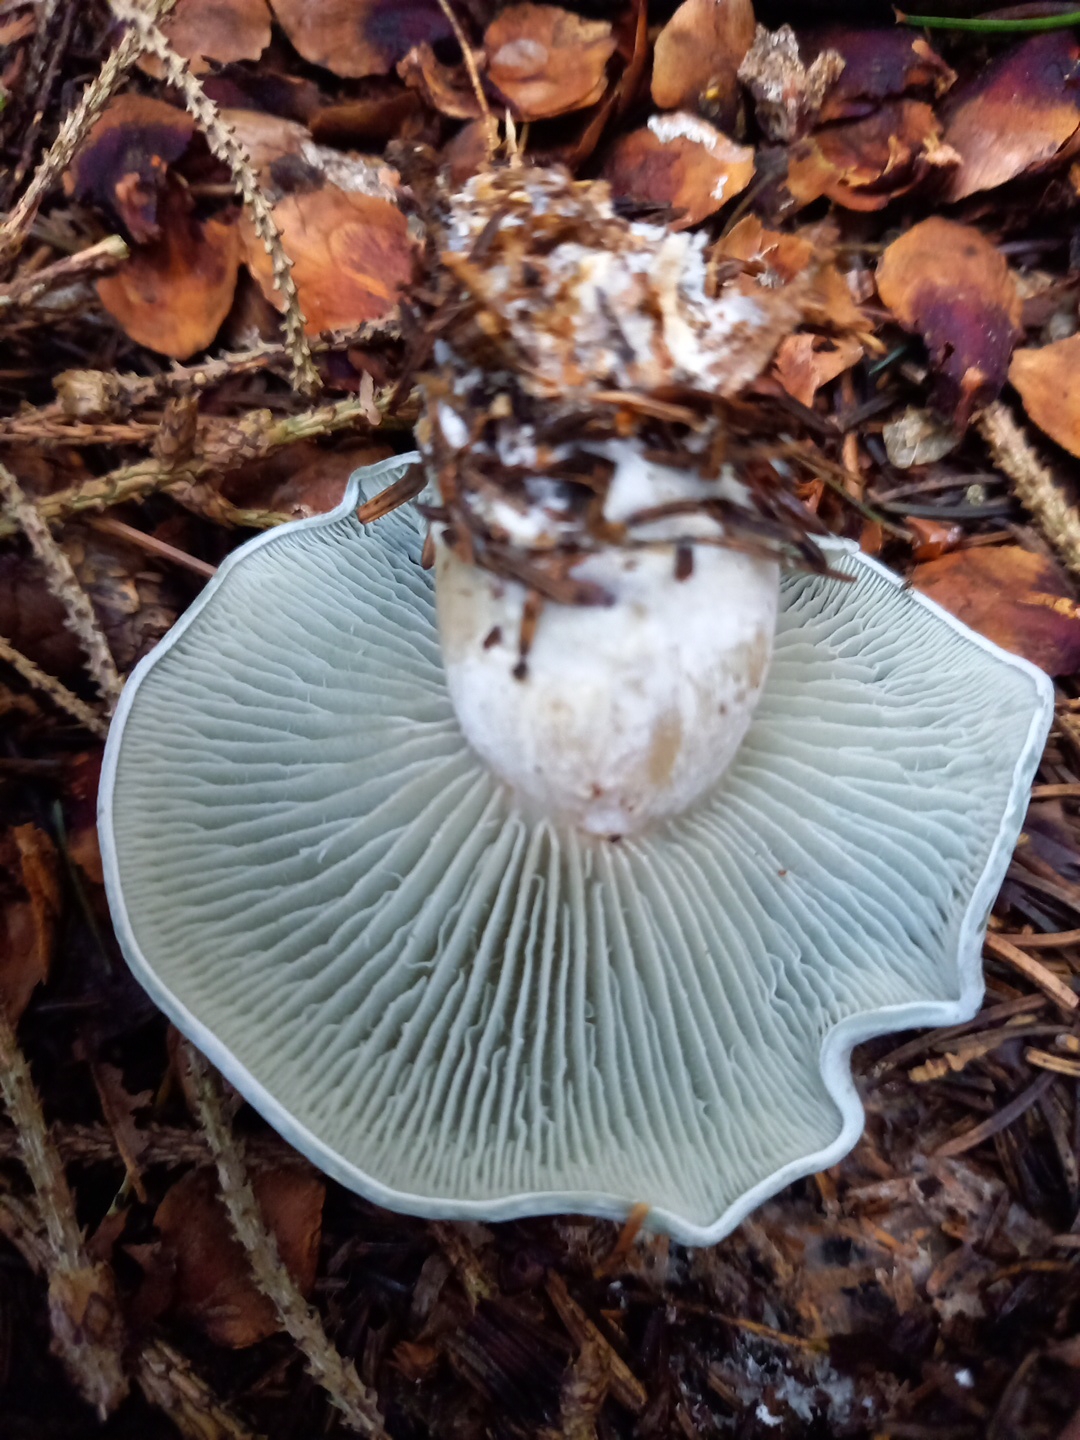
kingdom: Fungi
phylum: Basidiomycota
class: Agaricomycetes
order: Agaricales
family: Tricholomataceae
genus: Clitocybe
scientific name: Clitocybe odora
